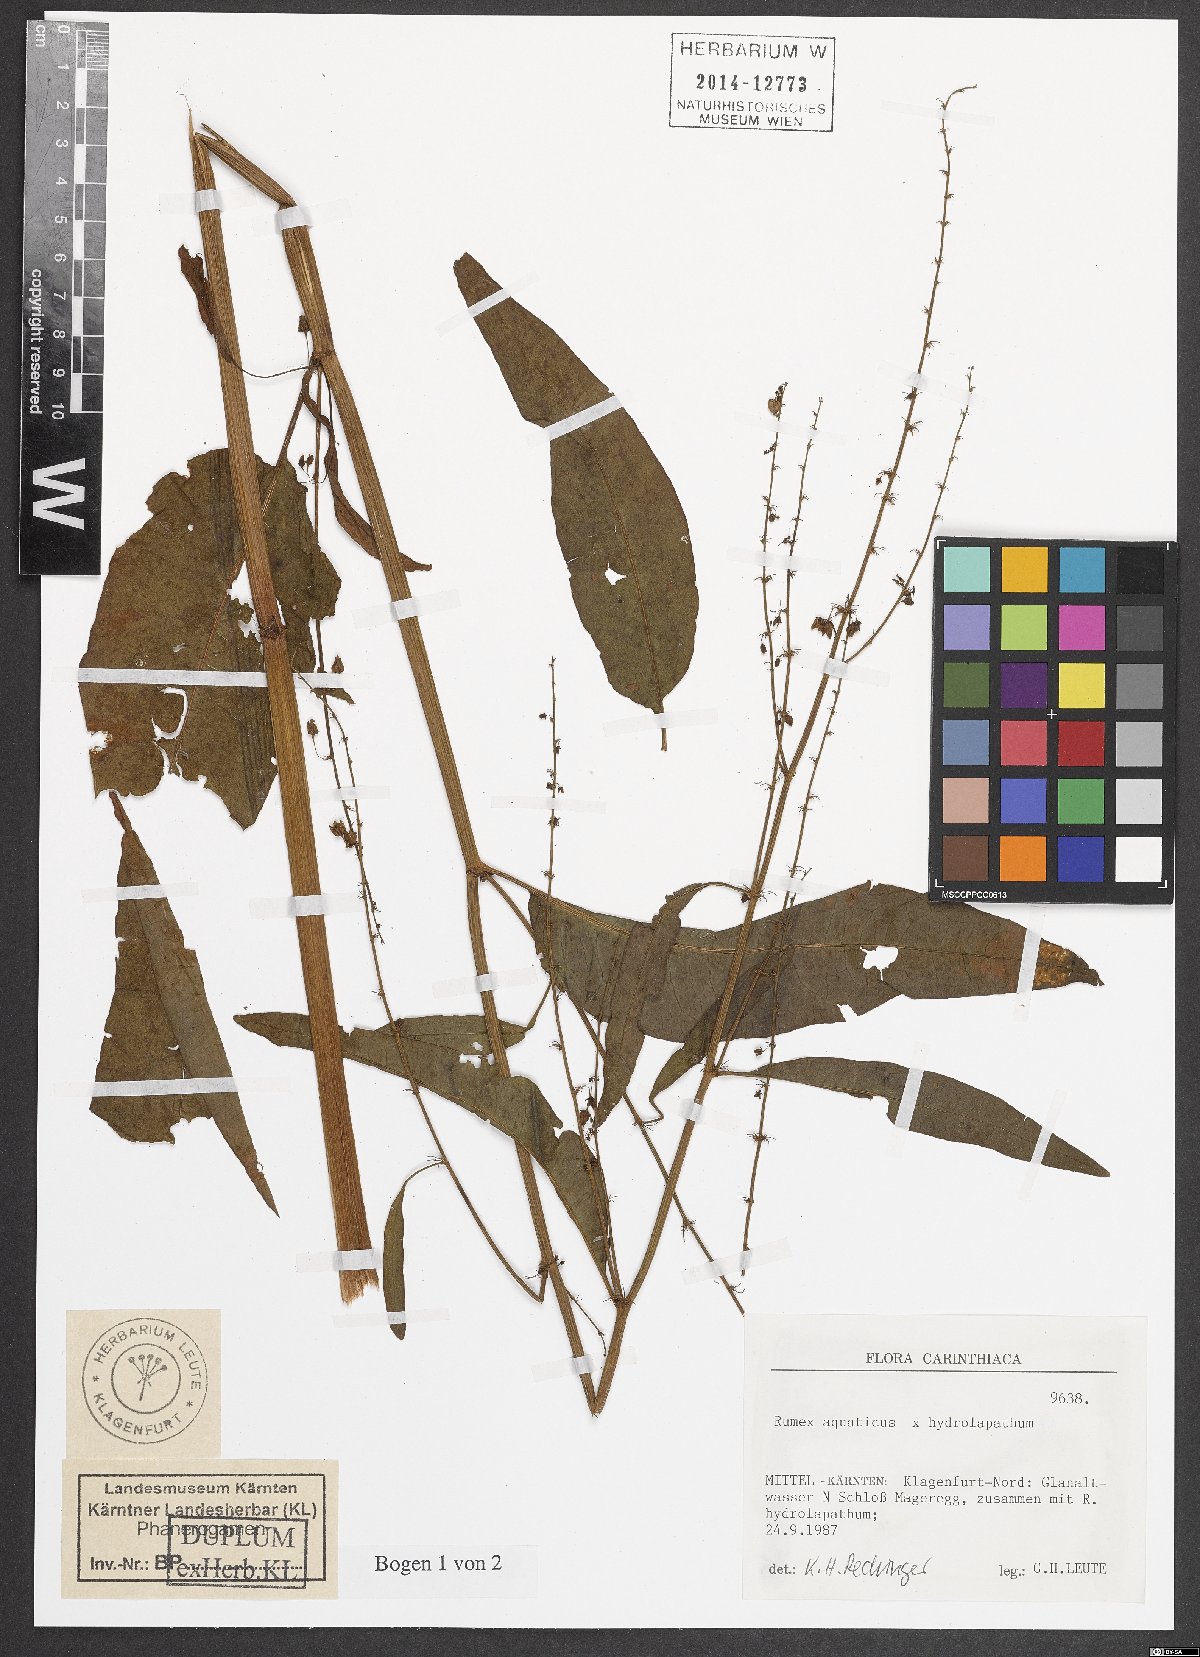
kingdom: Plantae
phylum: Tracheophyta
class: Magnoliopsida
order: Caryophyllales
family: Polygonaceae
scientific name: Polygonaceae
